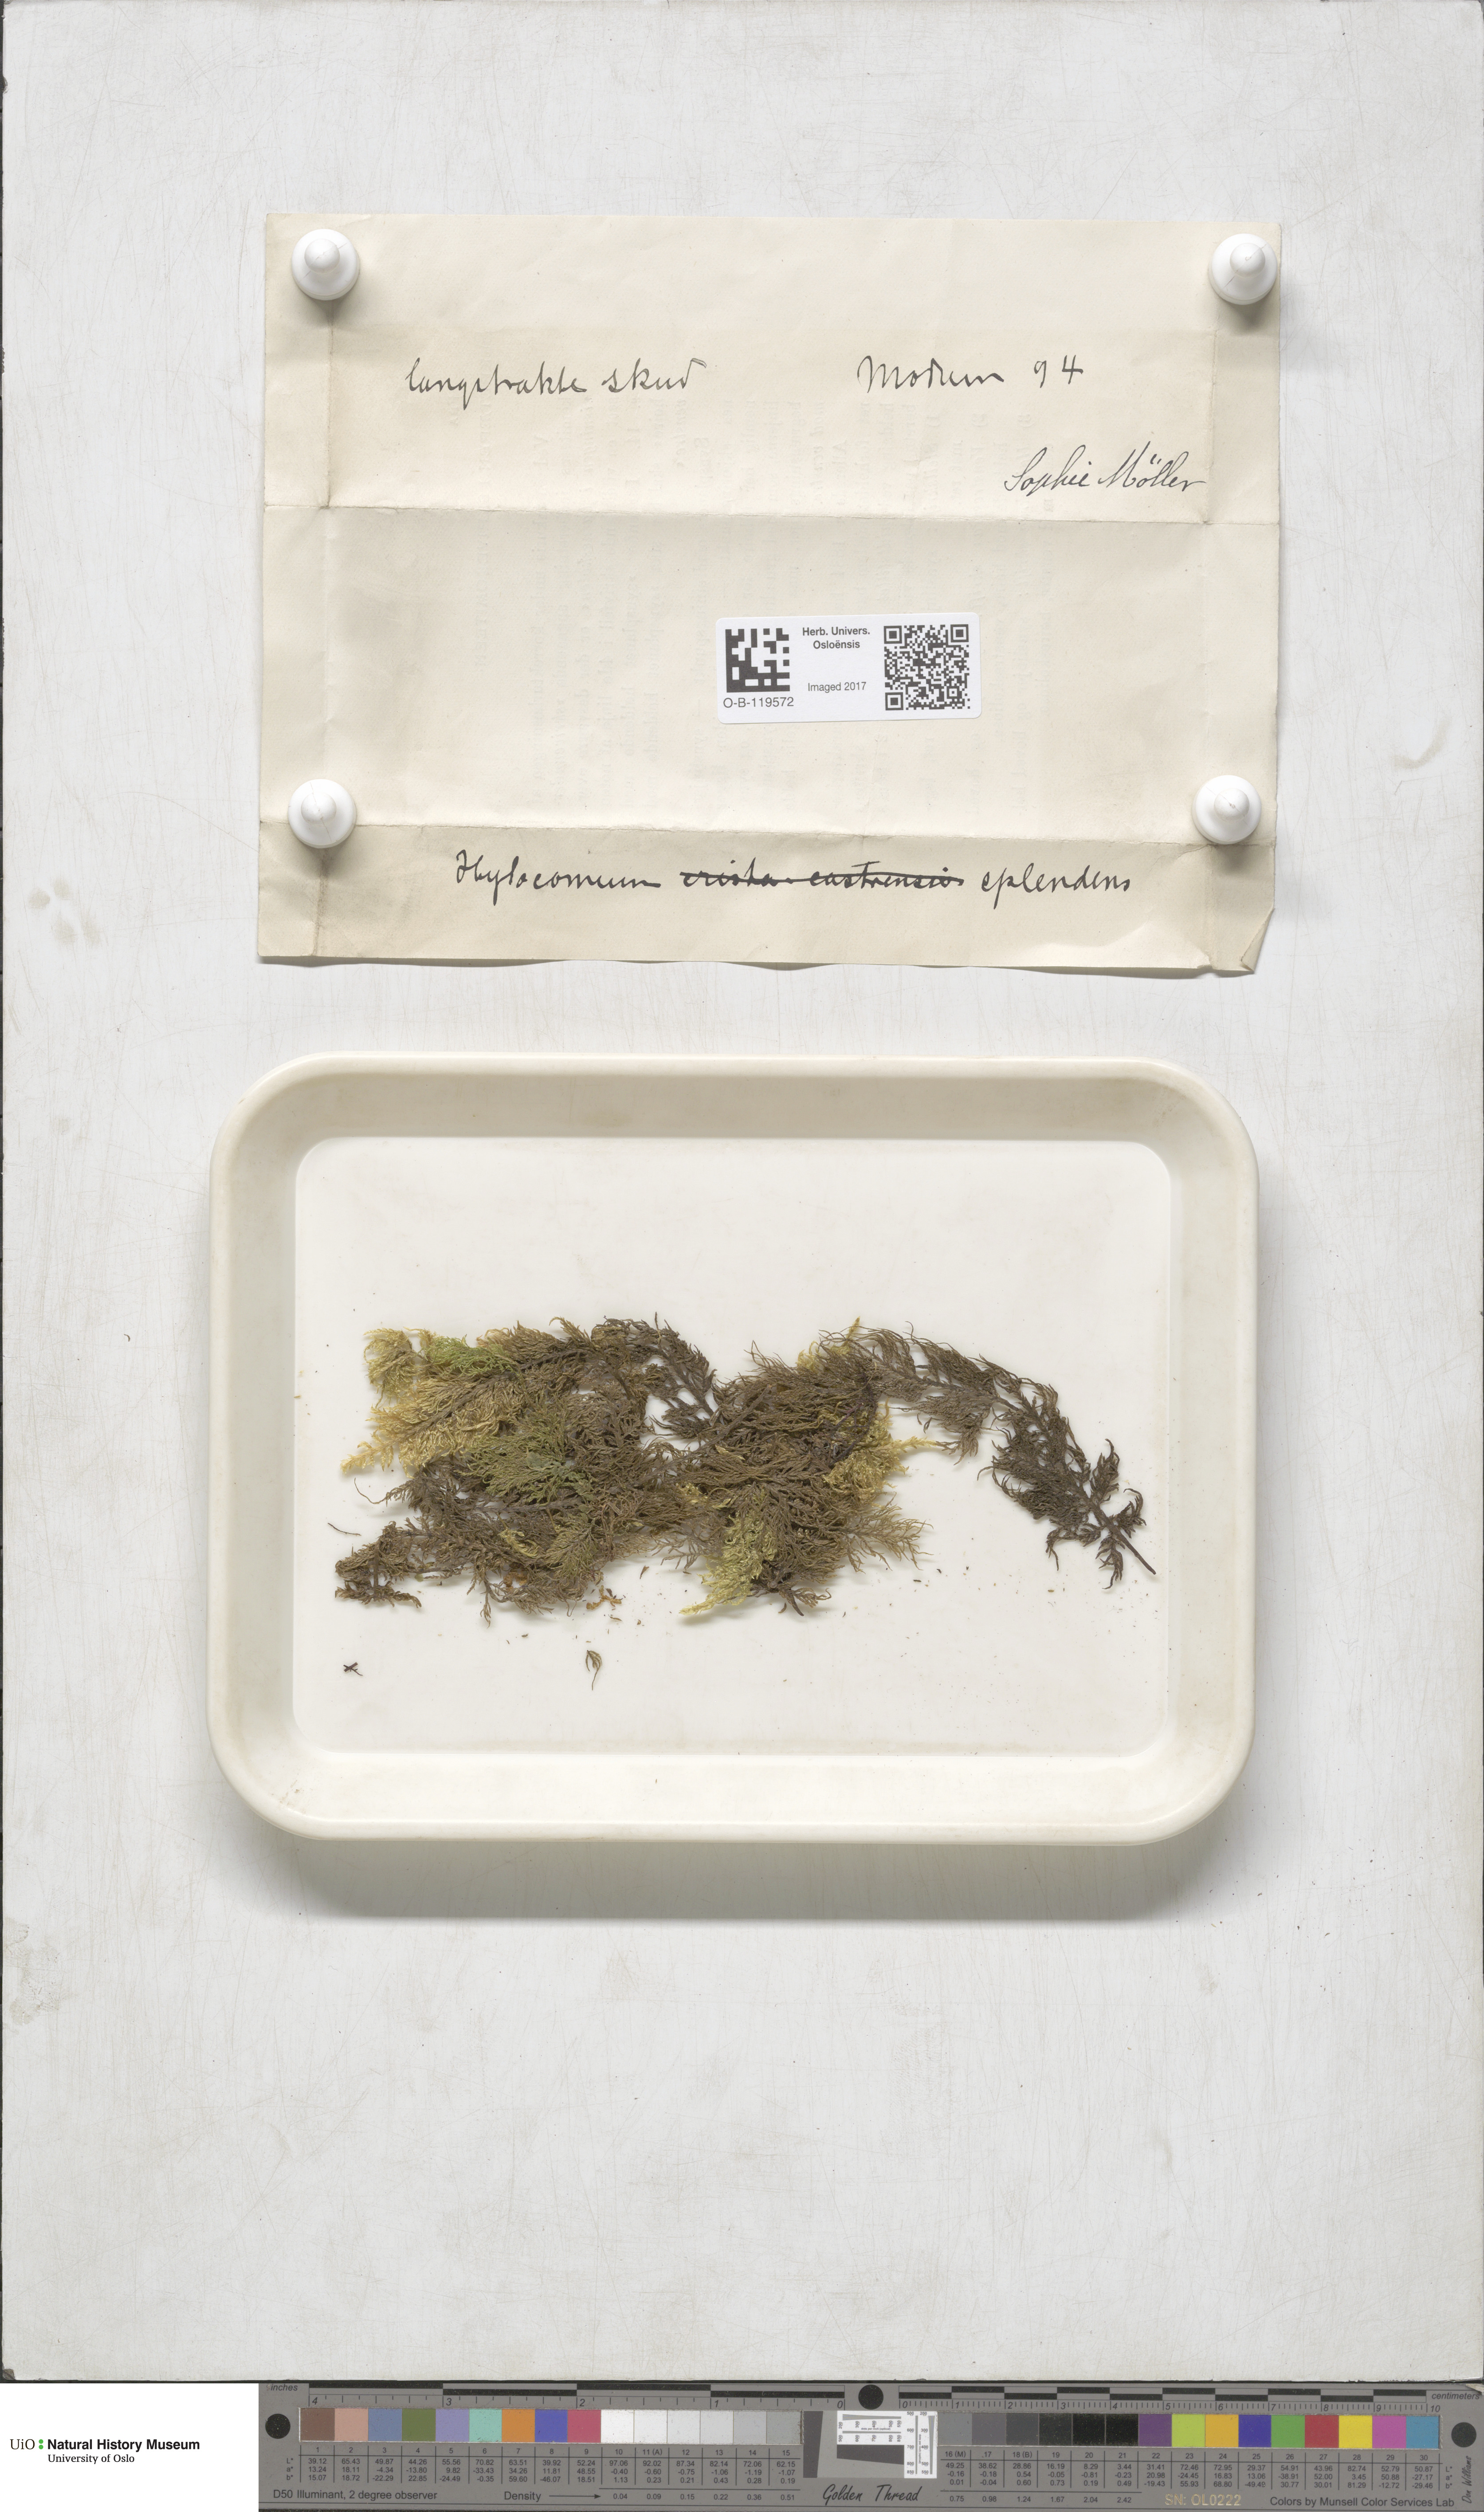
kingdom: Plantae
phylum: Bryophyta
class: Bryopsida
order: Hypnales
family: Hylocomiaceae
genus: Hylocomium
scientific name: Hylocomium splendens
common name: Stairstep moss
